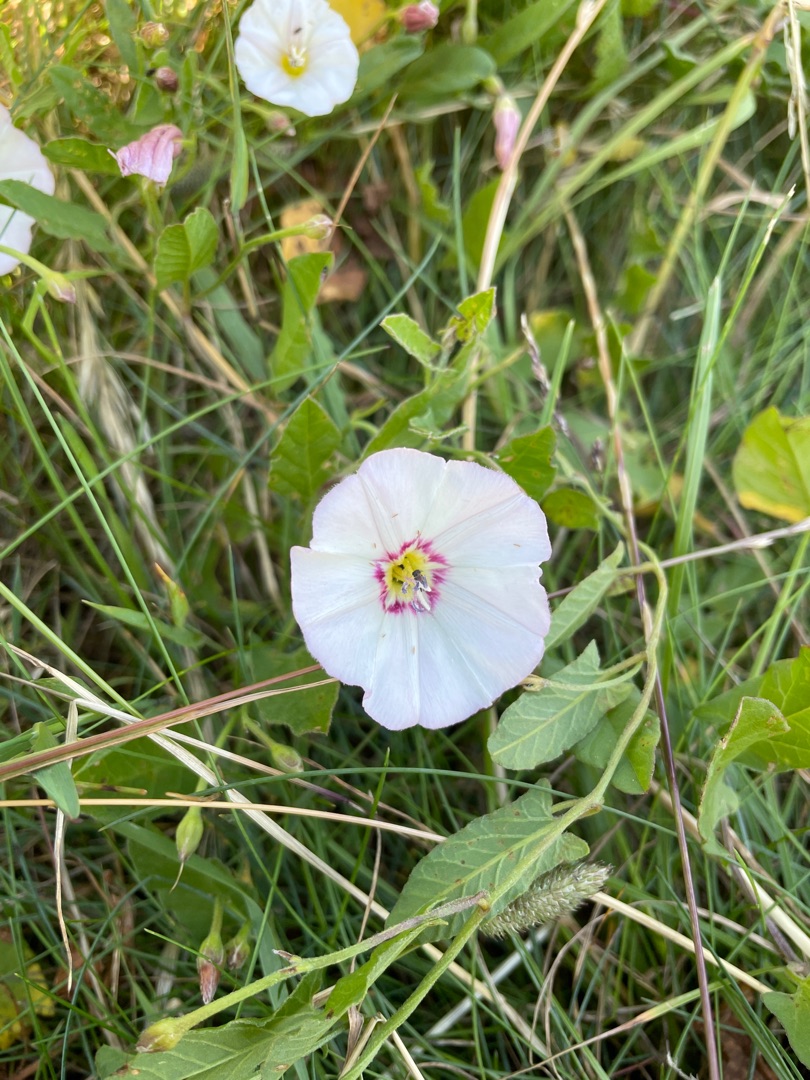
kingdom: Plantae
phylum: Tracheophyta
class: Magnoliopsida
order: Solanales
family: Convolvulaceae
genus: Convolvulus
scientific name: Convolvulus arvensis
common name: Ager-snerle
